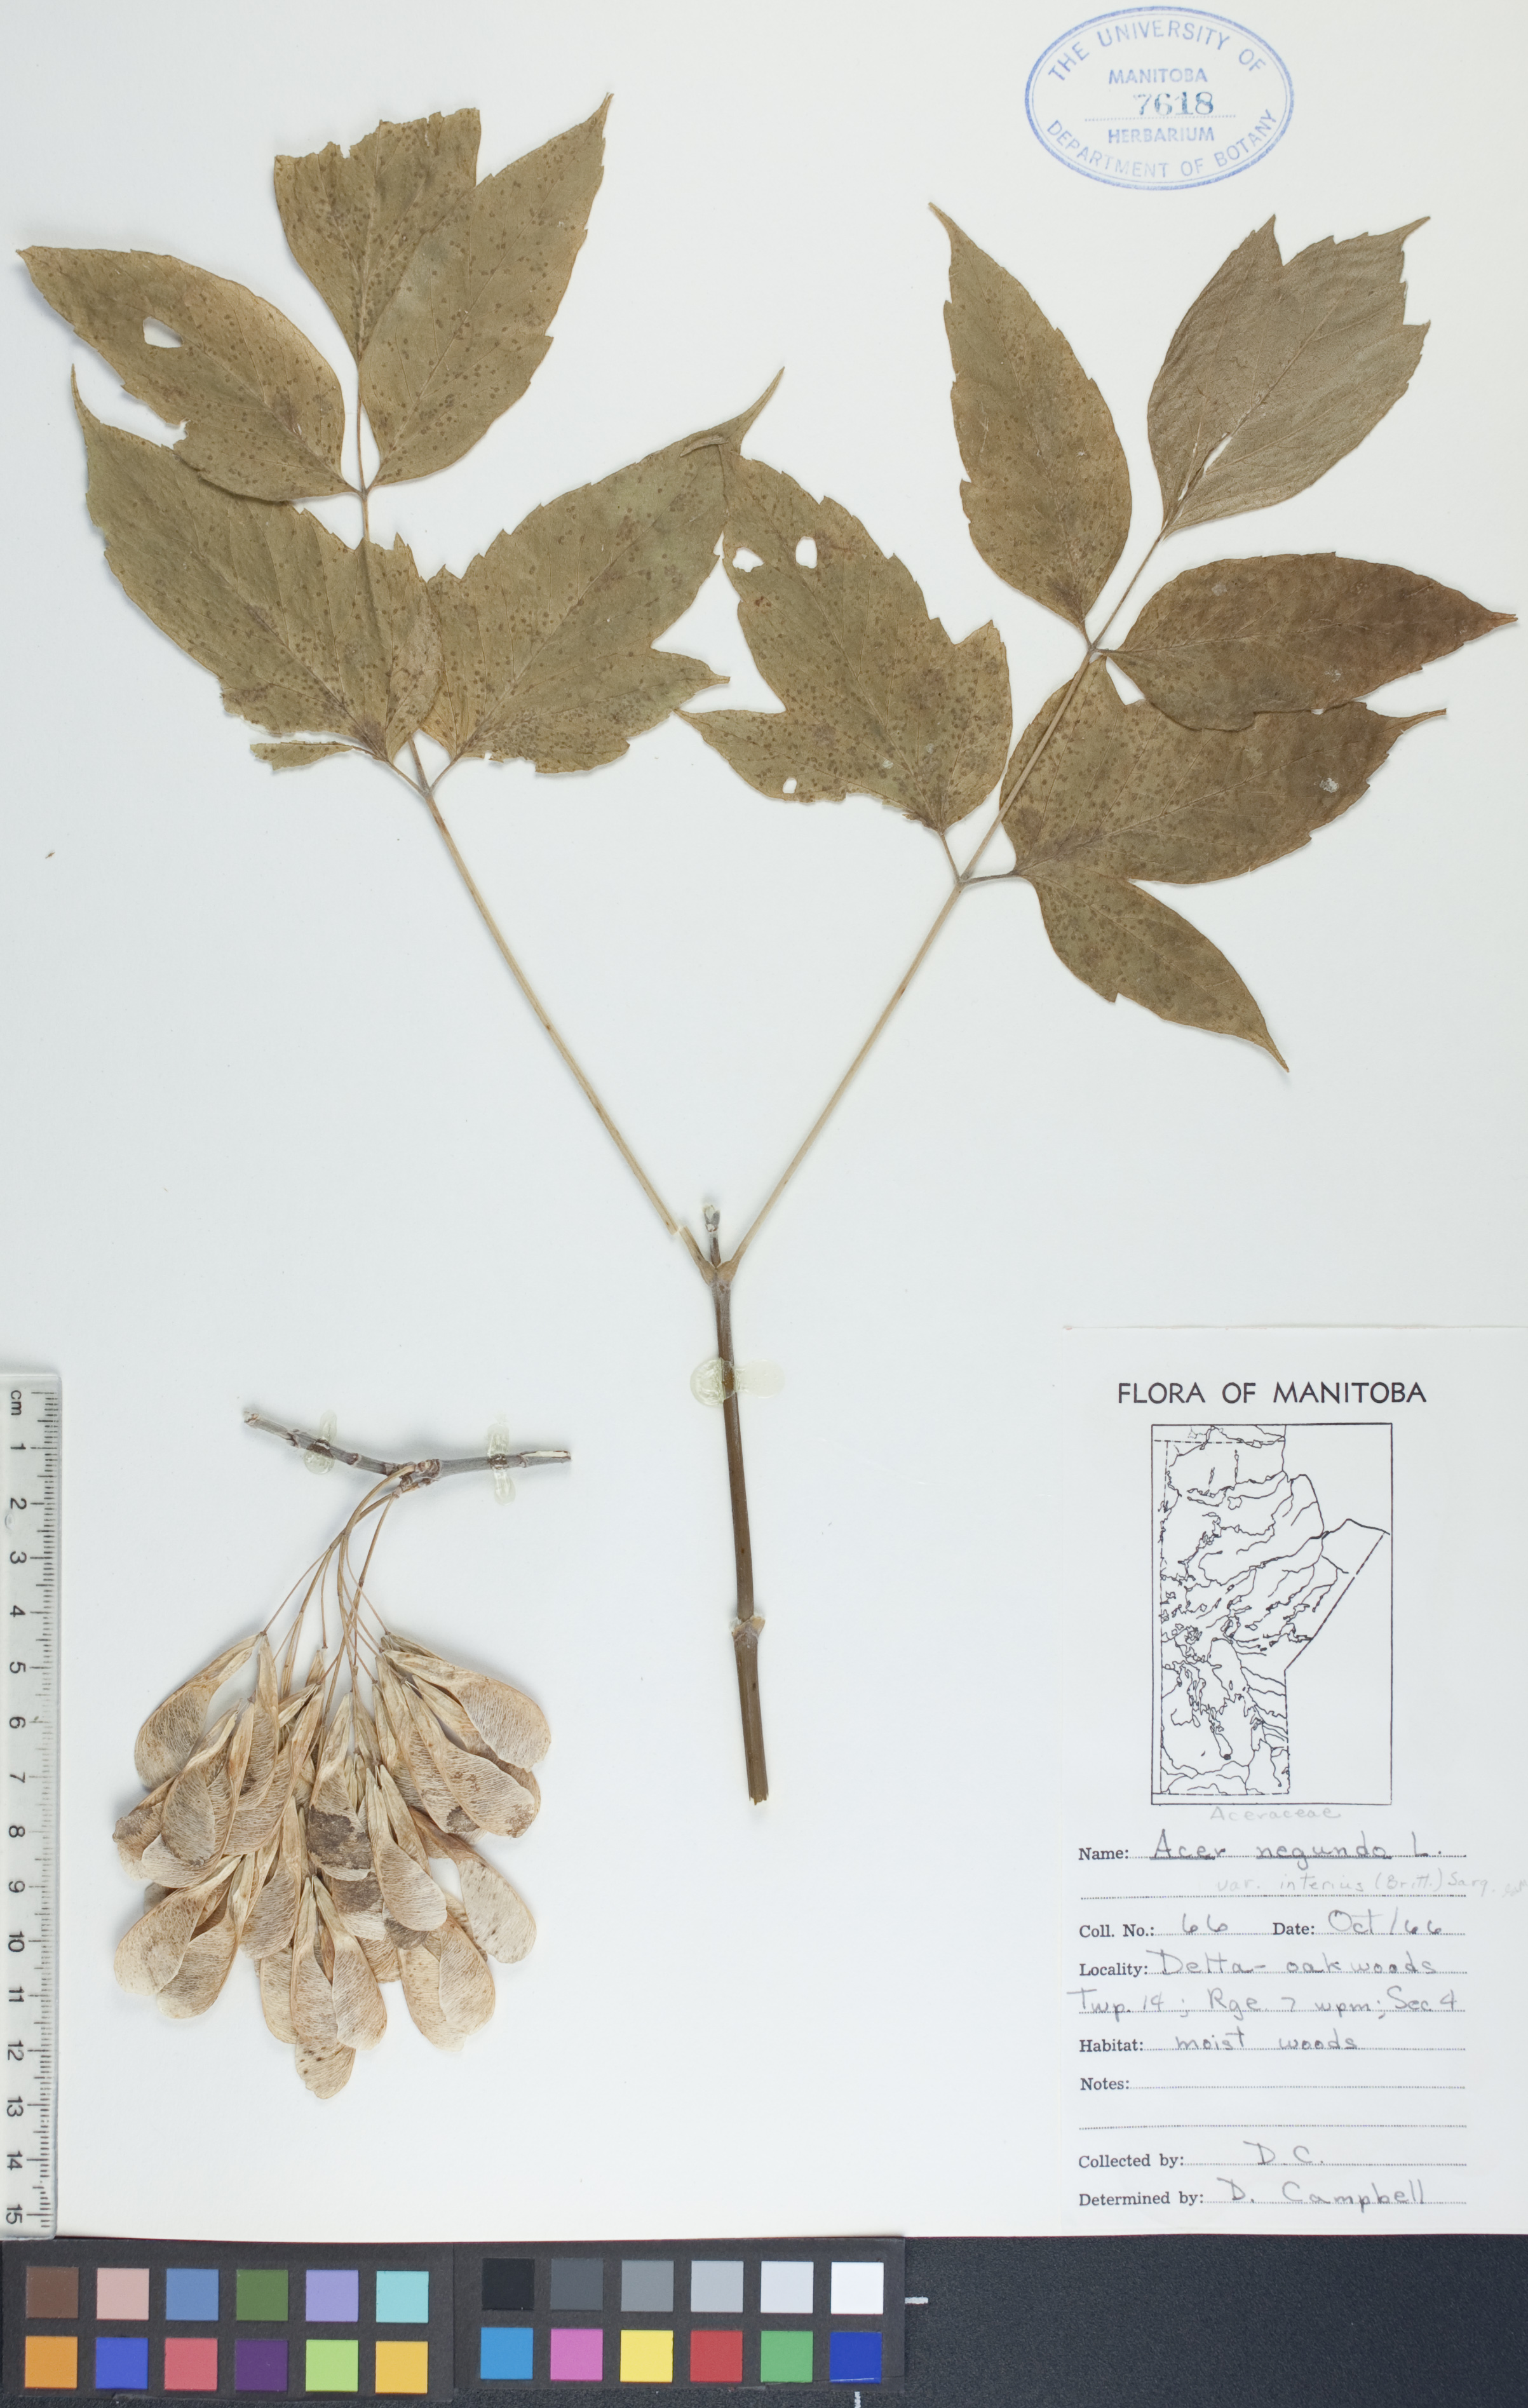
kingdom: Plantae
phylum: Tracheophyta
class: Magnoliopsida
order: Sapindales
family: Sapindaceae
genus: Acer
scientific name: Acer negundo
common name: Ashleaf maple
